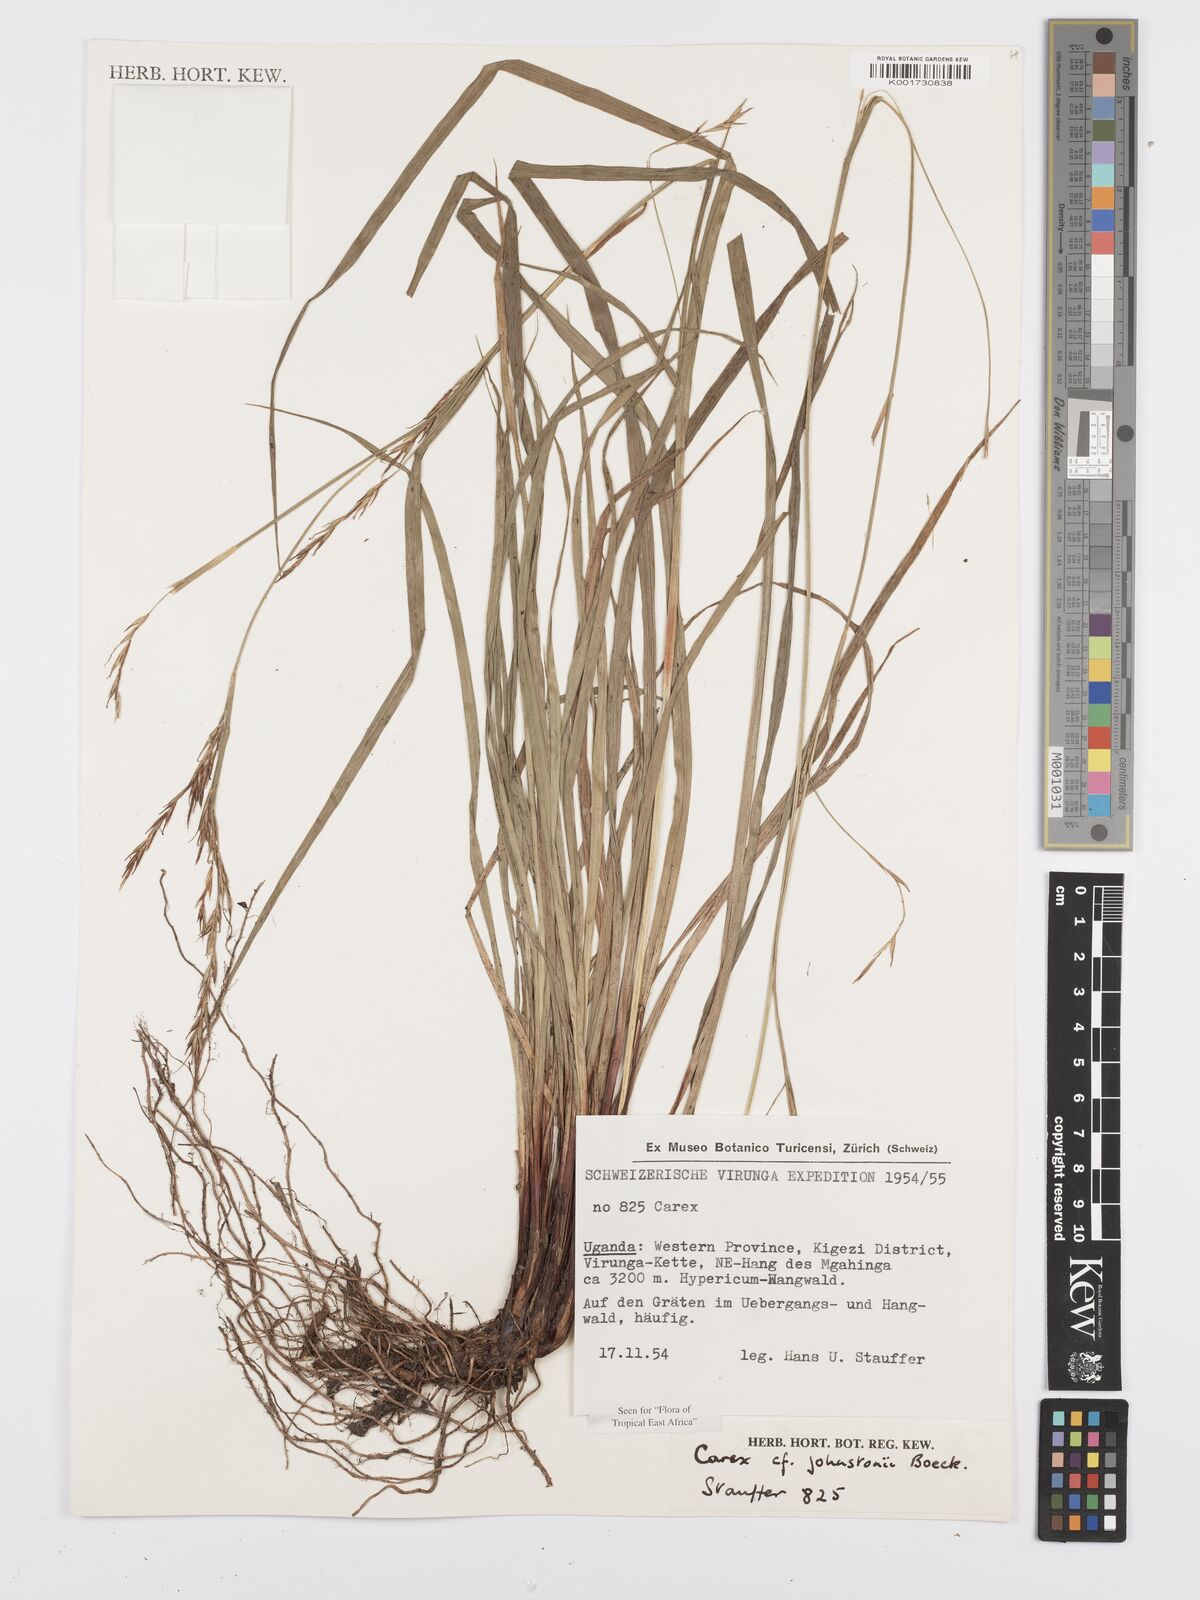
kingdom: Plantae
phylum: Tracheophyta
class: Liliopsida
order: Poales
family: Cyperaceae
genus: Carex
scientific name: Carex johnstonii
